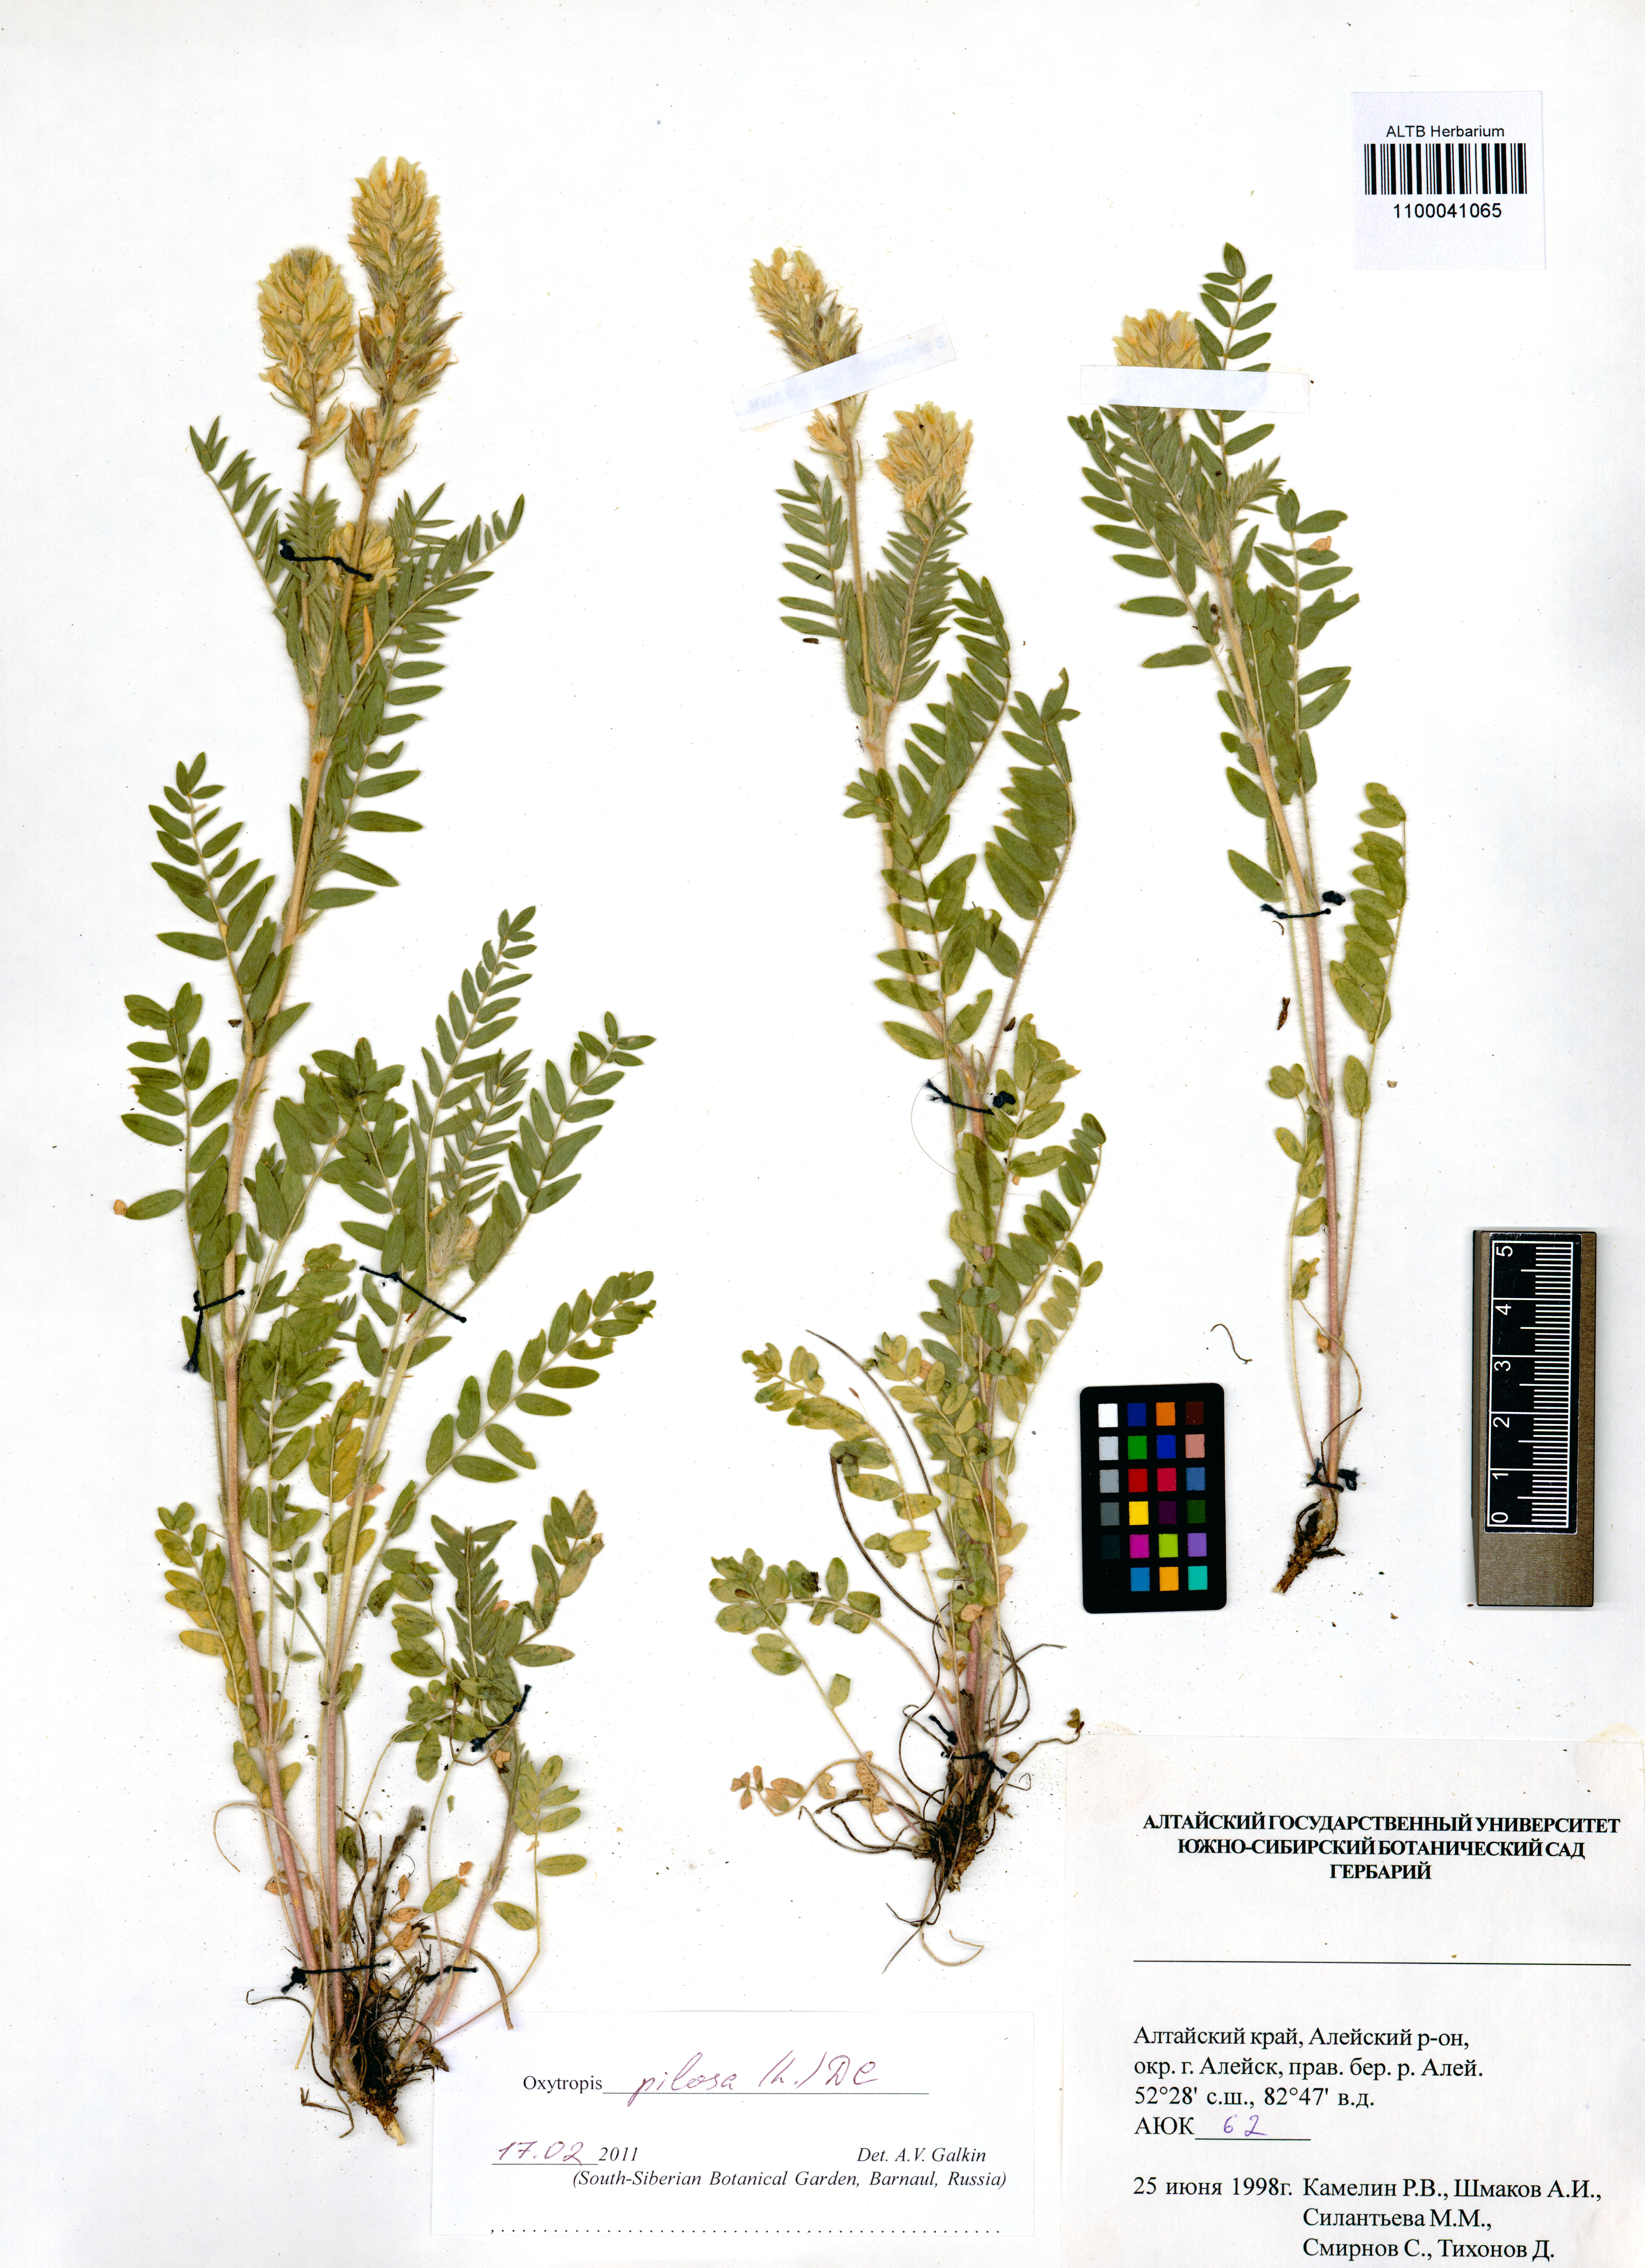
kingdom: Plantae
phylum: Tracheophyta
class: Magnoliopsida
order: Fabales
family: Fabaceae
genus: Oxytropis
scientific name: Oxytropis pilosa
